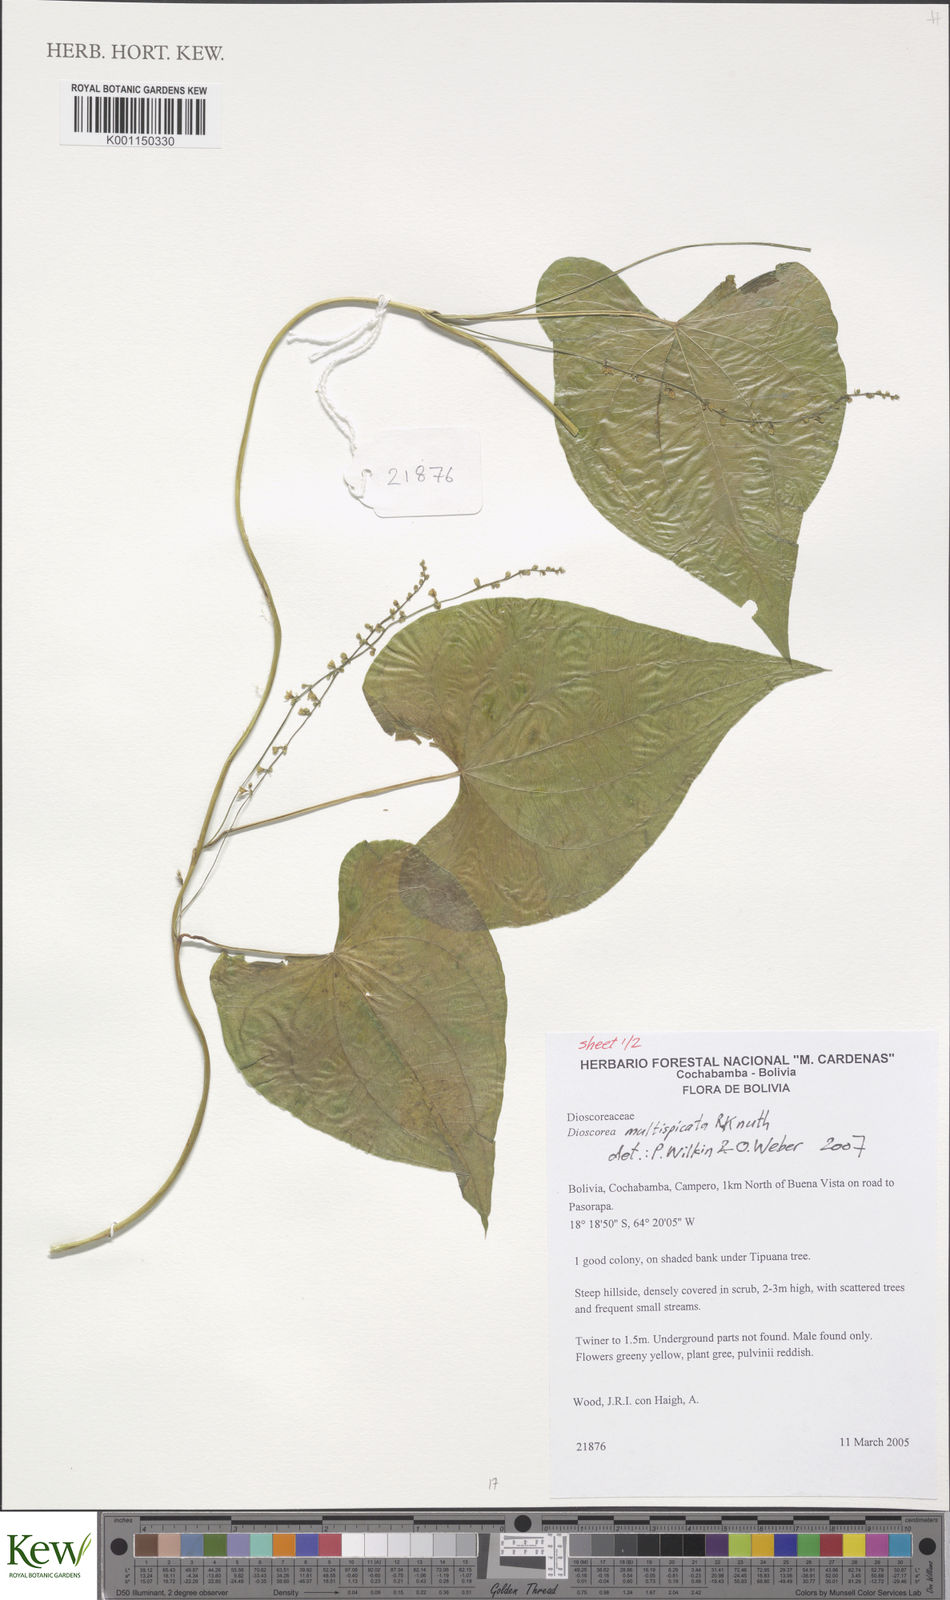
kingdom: Plantae
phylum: Tracheophyta
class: Liliopsida
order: Dioscoreales
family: Dioscoreaceae
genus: Dioscorea
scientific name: Dioscorea multispicata
